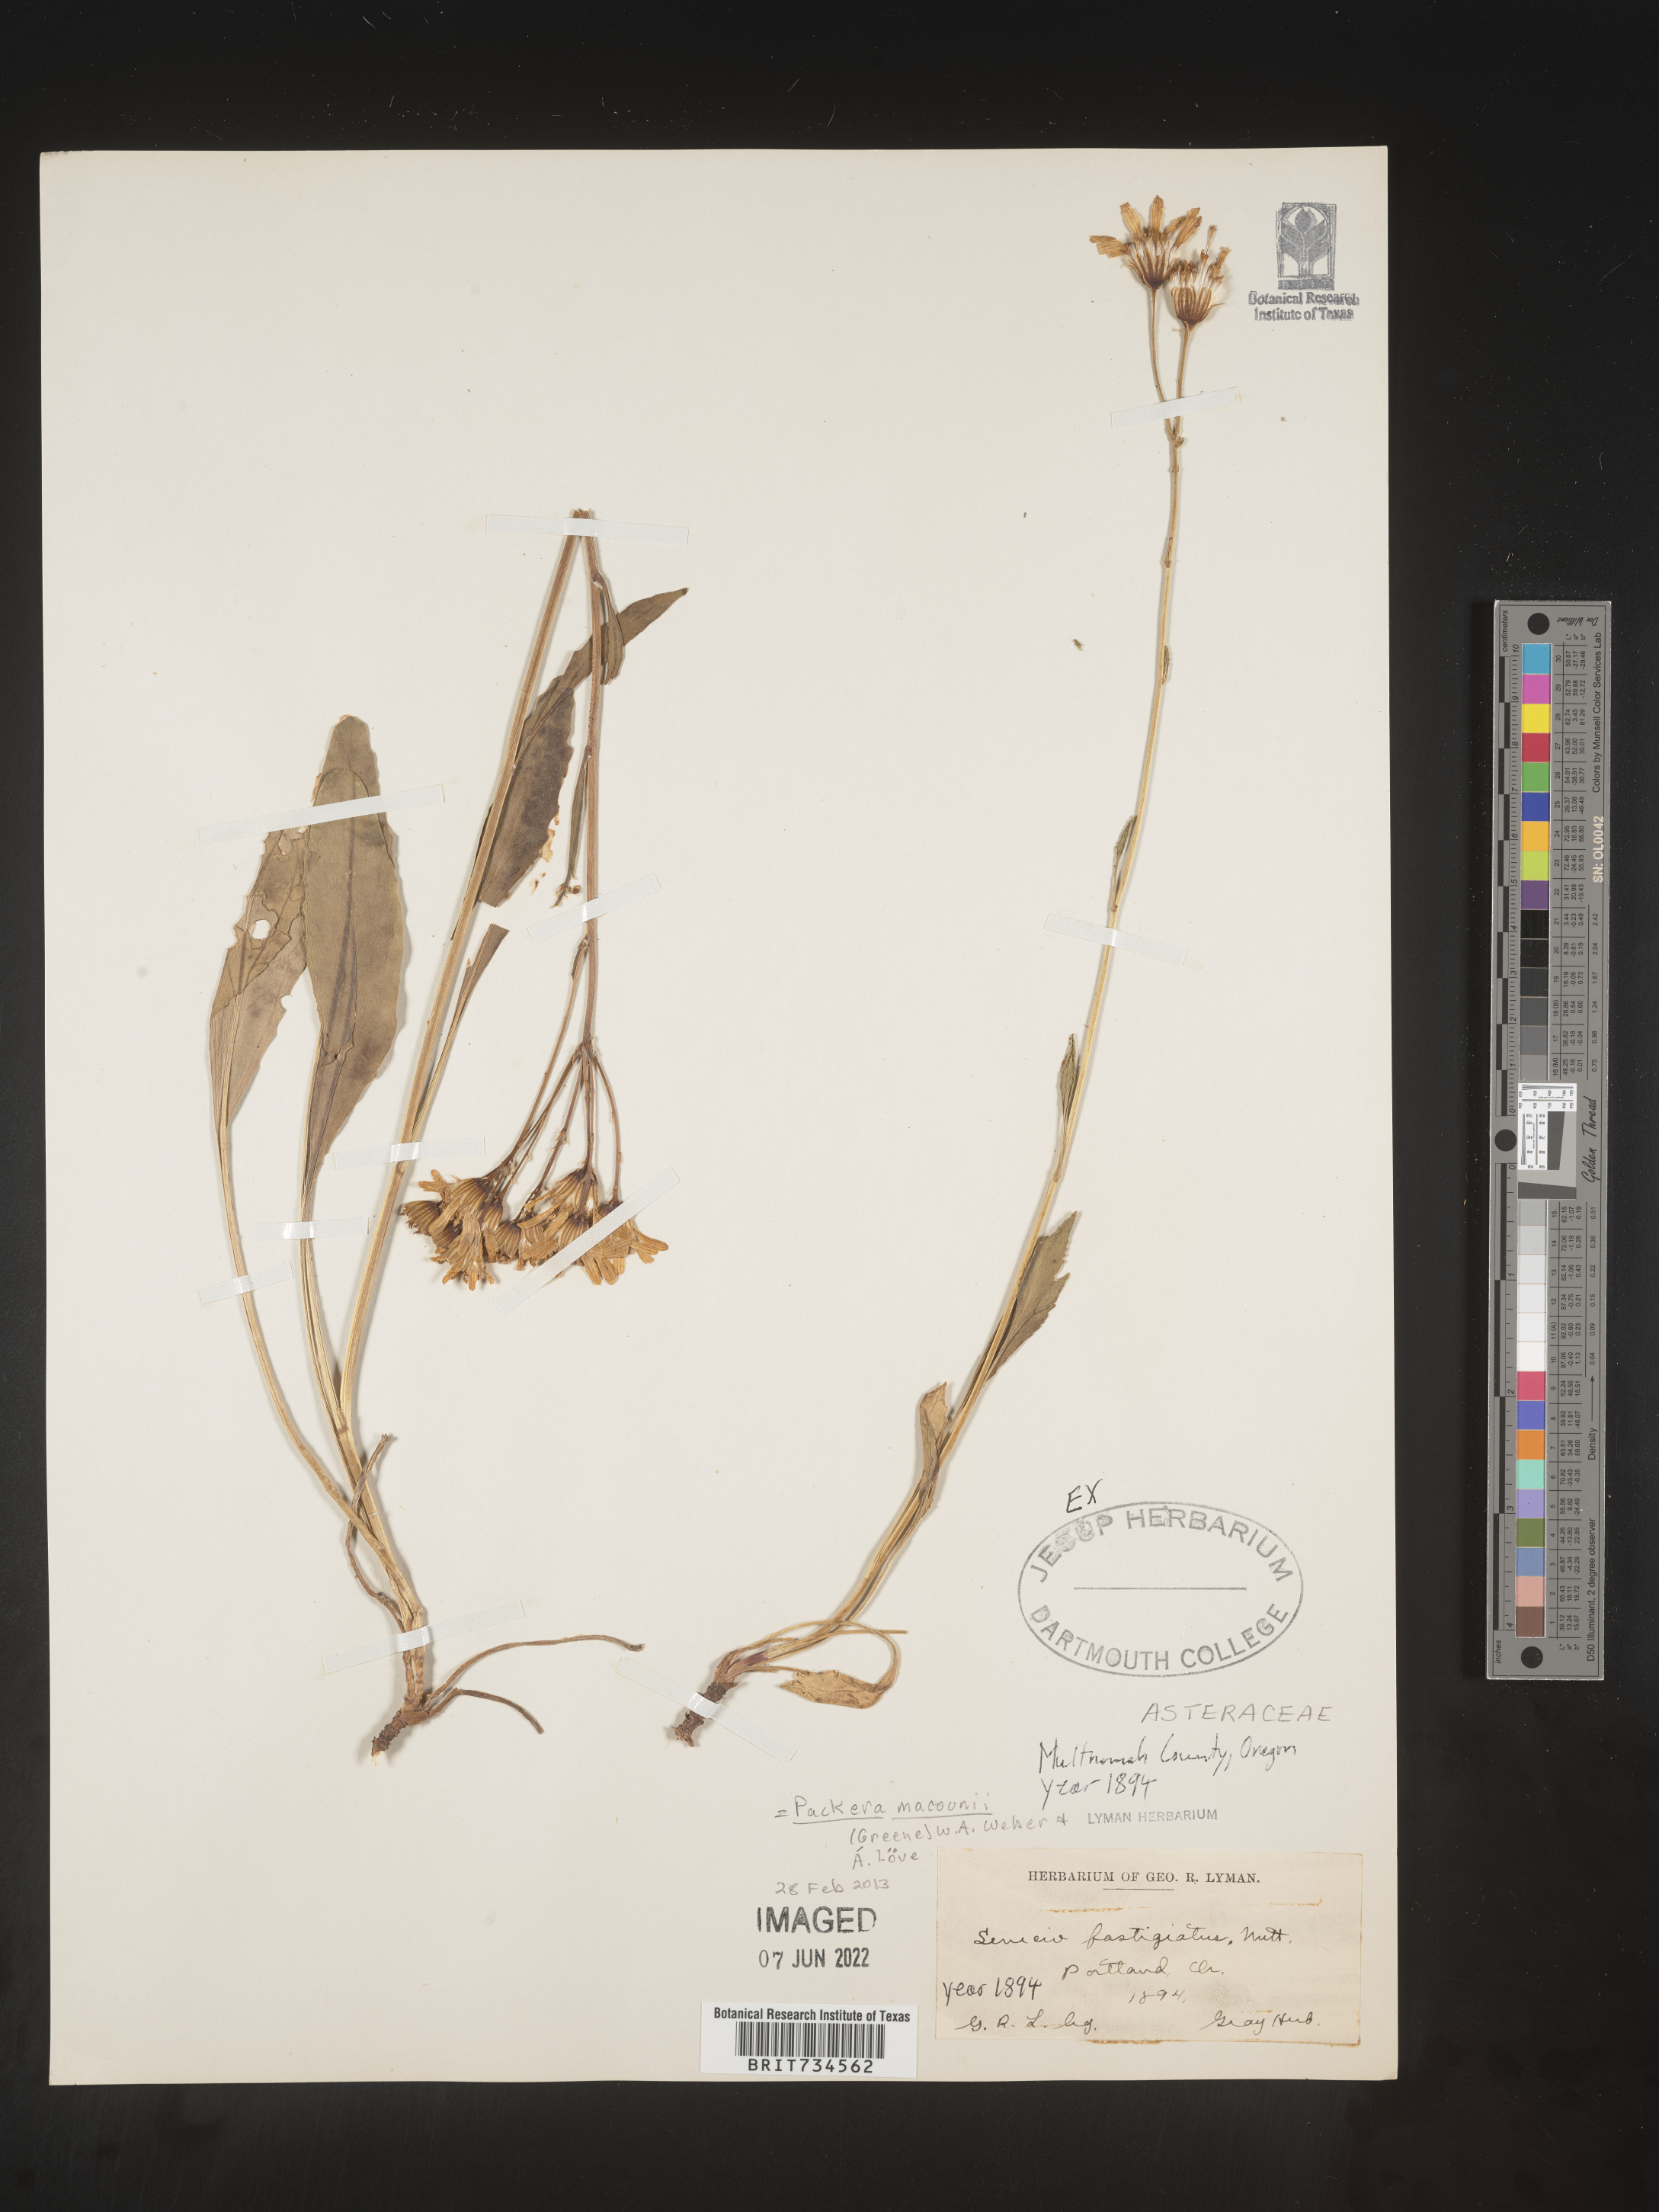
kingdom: Plantae
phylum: Tracheophyta
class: Magnoliopsida
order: Asterales
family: Asteraceae
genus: Packera
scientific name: Packera macounii
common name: Macoun's groundsel
